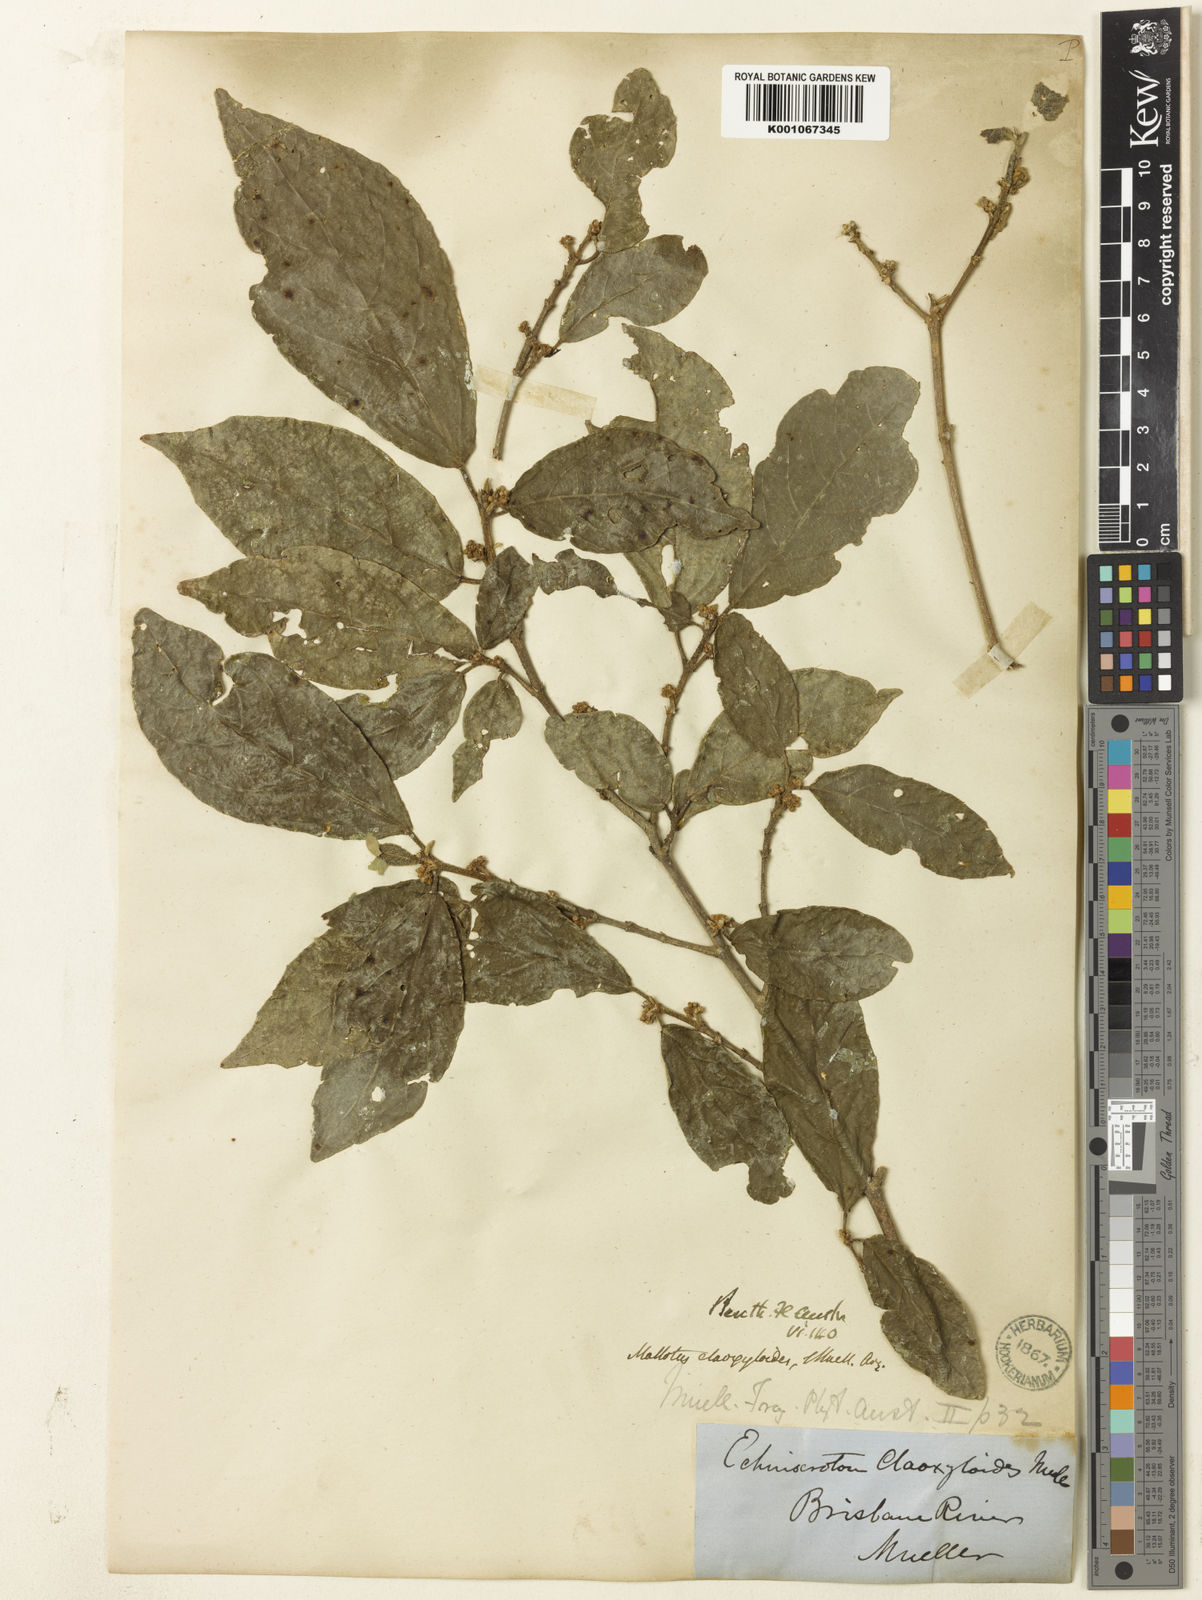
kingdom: Plantae
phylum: Tracheophyta
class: Magnoliopsida
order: Malpighiales
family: Euphorbiaceae
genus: Mallotus
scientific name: Mallotus claoxyloides
